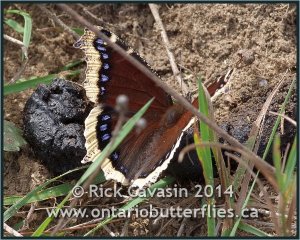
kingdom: Animalia
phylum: Arthropoda
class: Insecta
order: Lepidoptera
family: Nymphalidae
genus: Nymphalis
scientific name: Nymphalis antiopa
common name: Mourning Cloak
